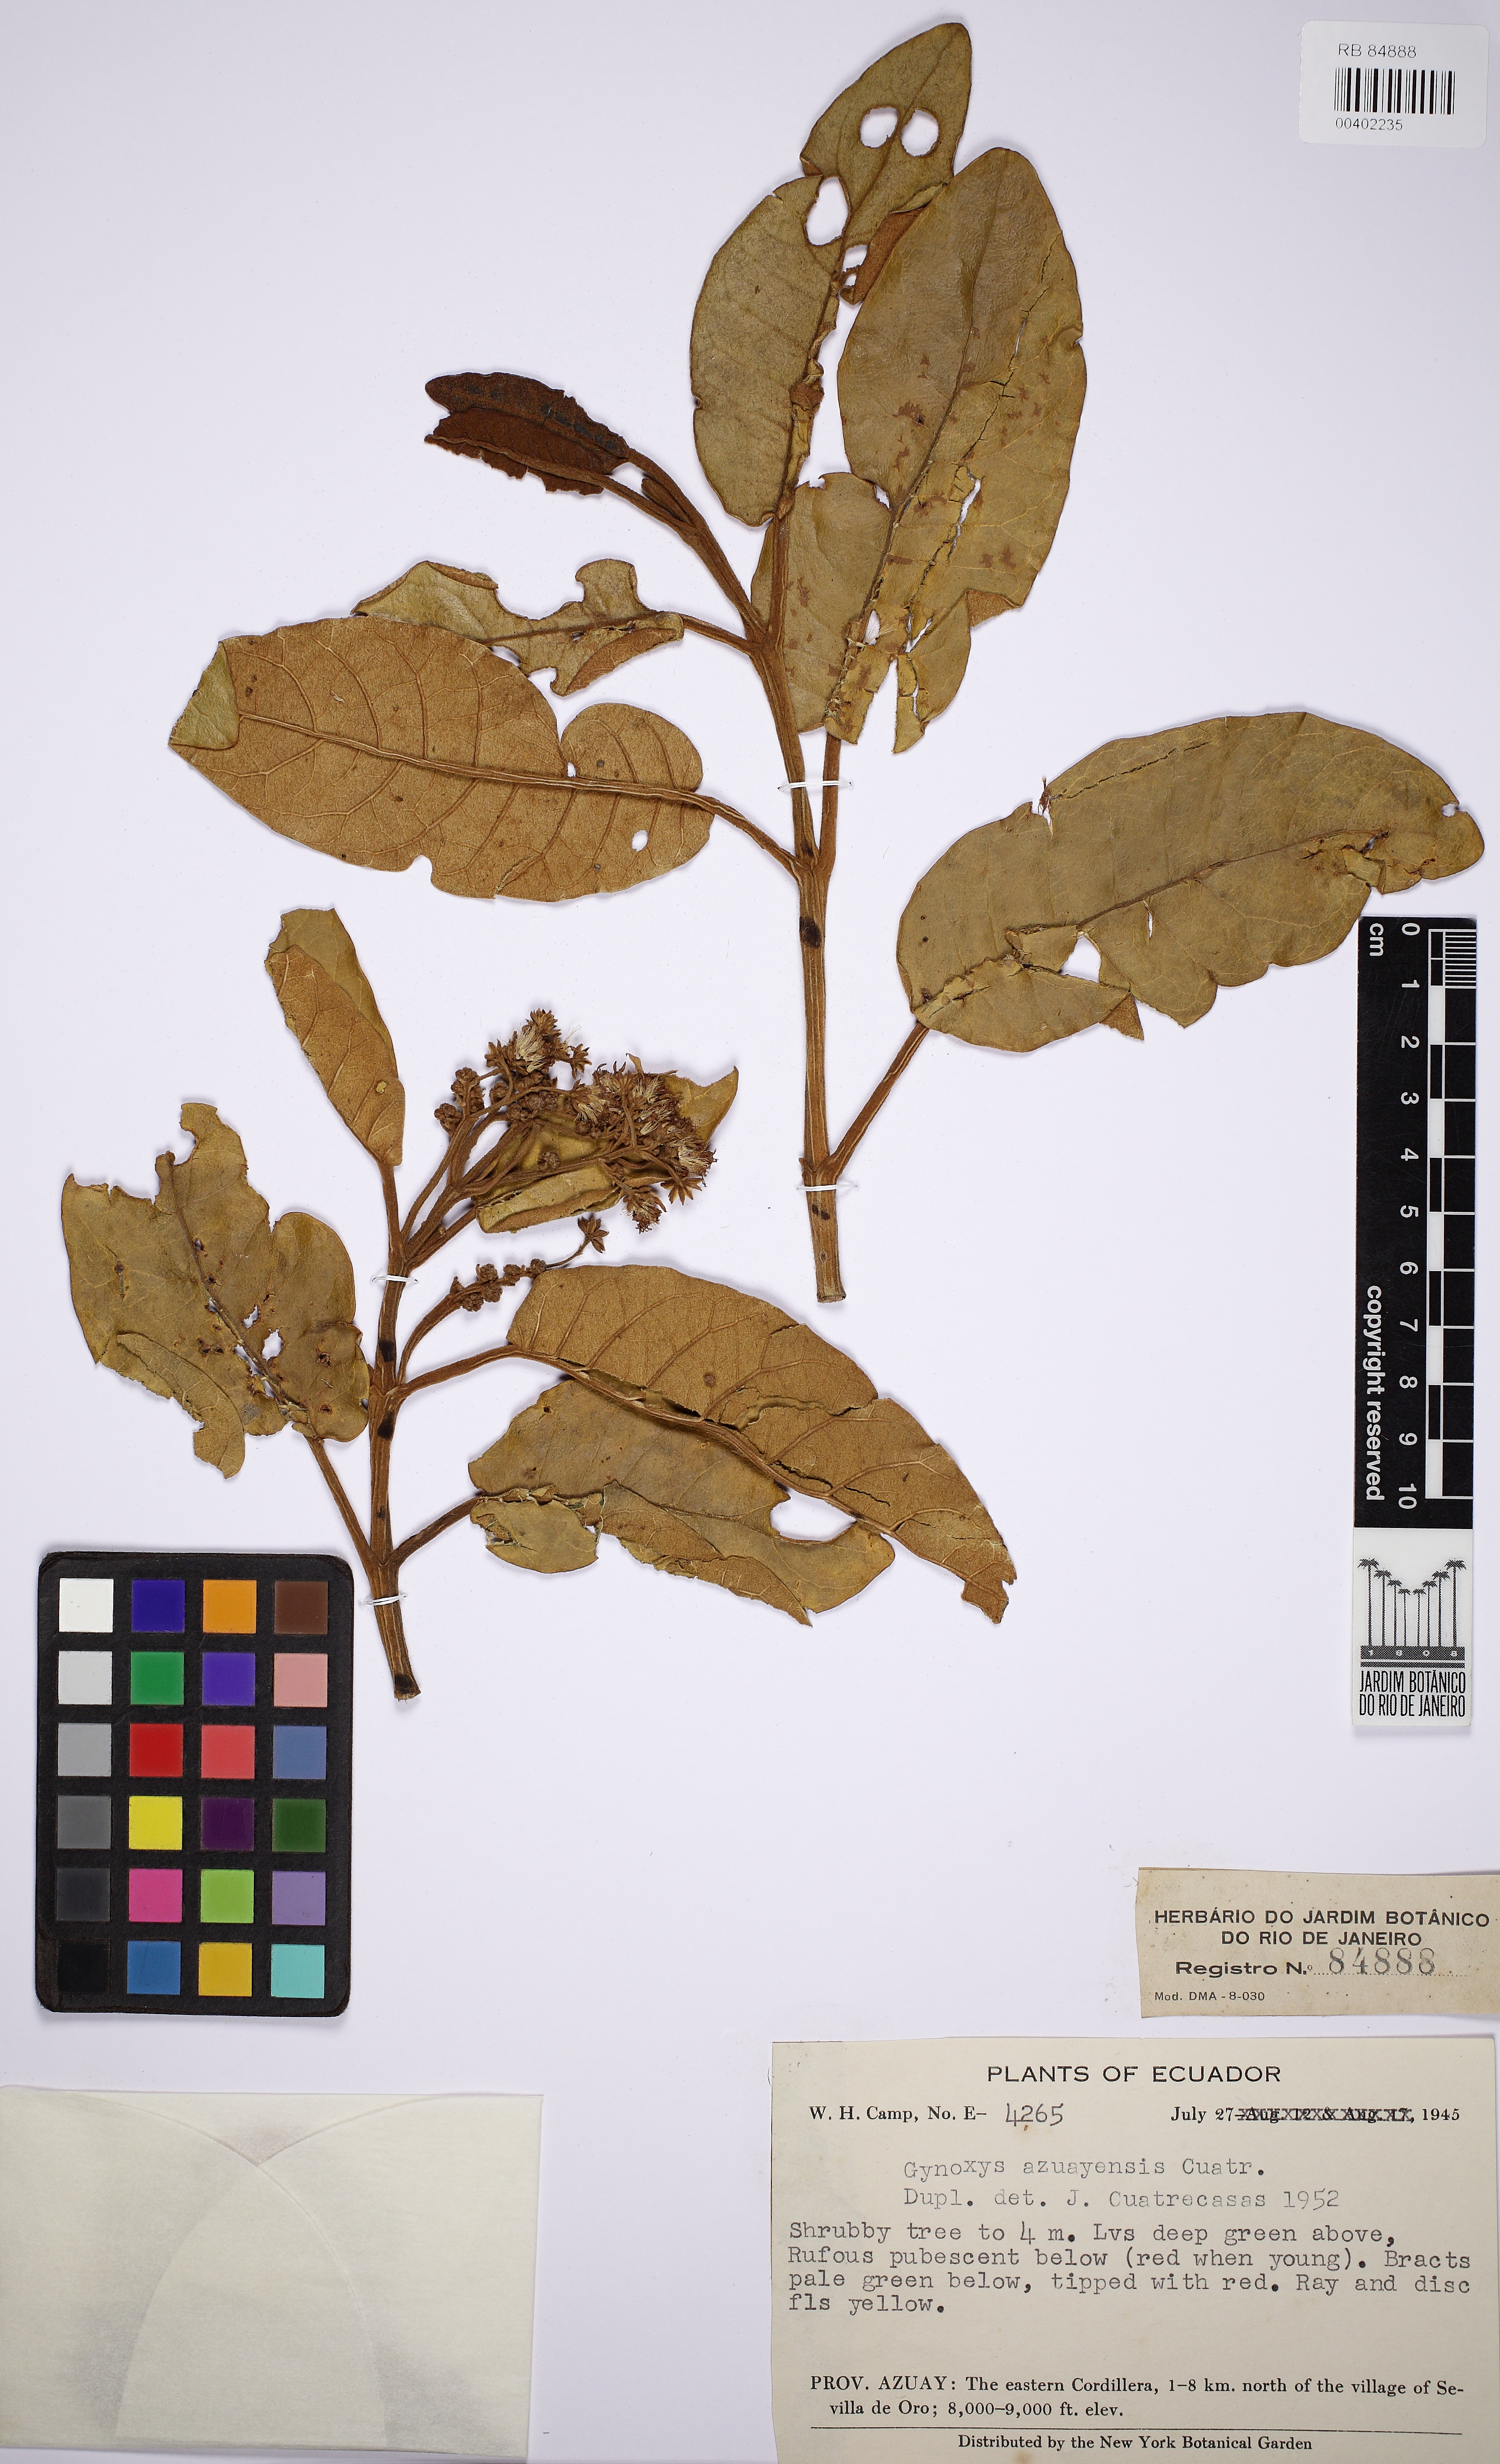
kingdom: Plantae
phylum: Tracheophyta
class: Magnoliopsida
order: Asterales
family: Asteraceae
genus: Gynoxys
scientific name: Gynoxys azuayensis
